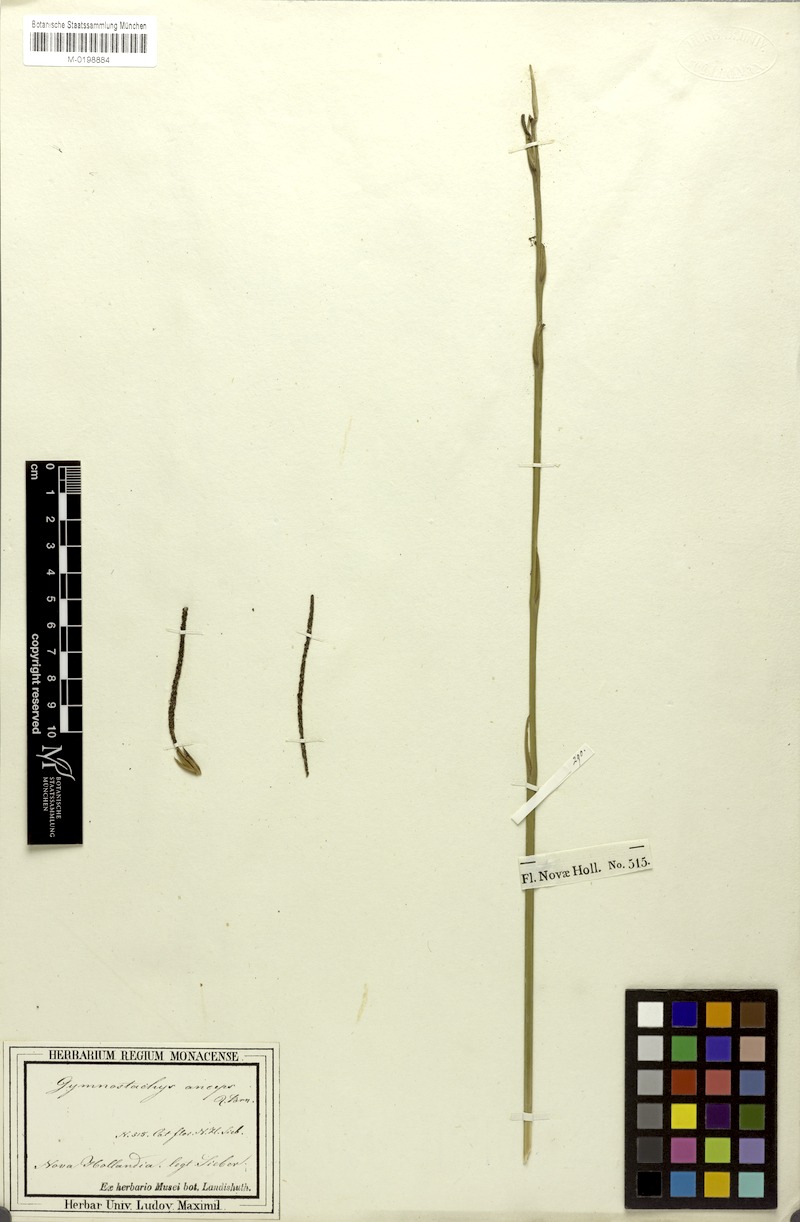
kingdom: Plantae
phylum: Tracheophyta
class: Liliopsida
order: Alismatales
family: Araceae
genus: Gymnostachys
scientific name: Gymnostachys anceps
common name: Settler's-flax
